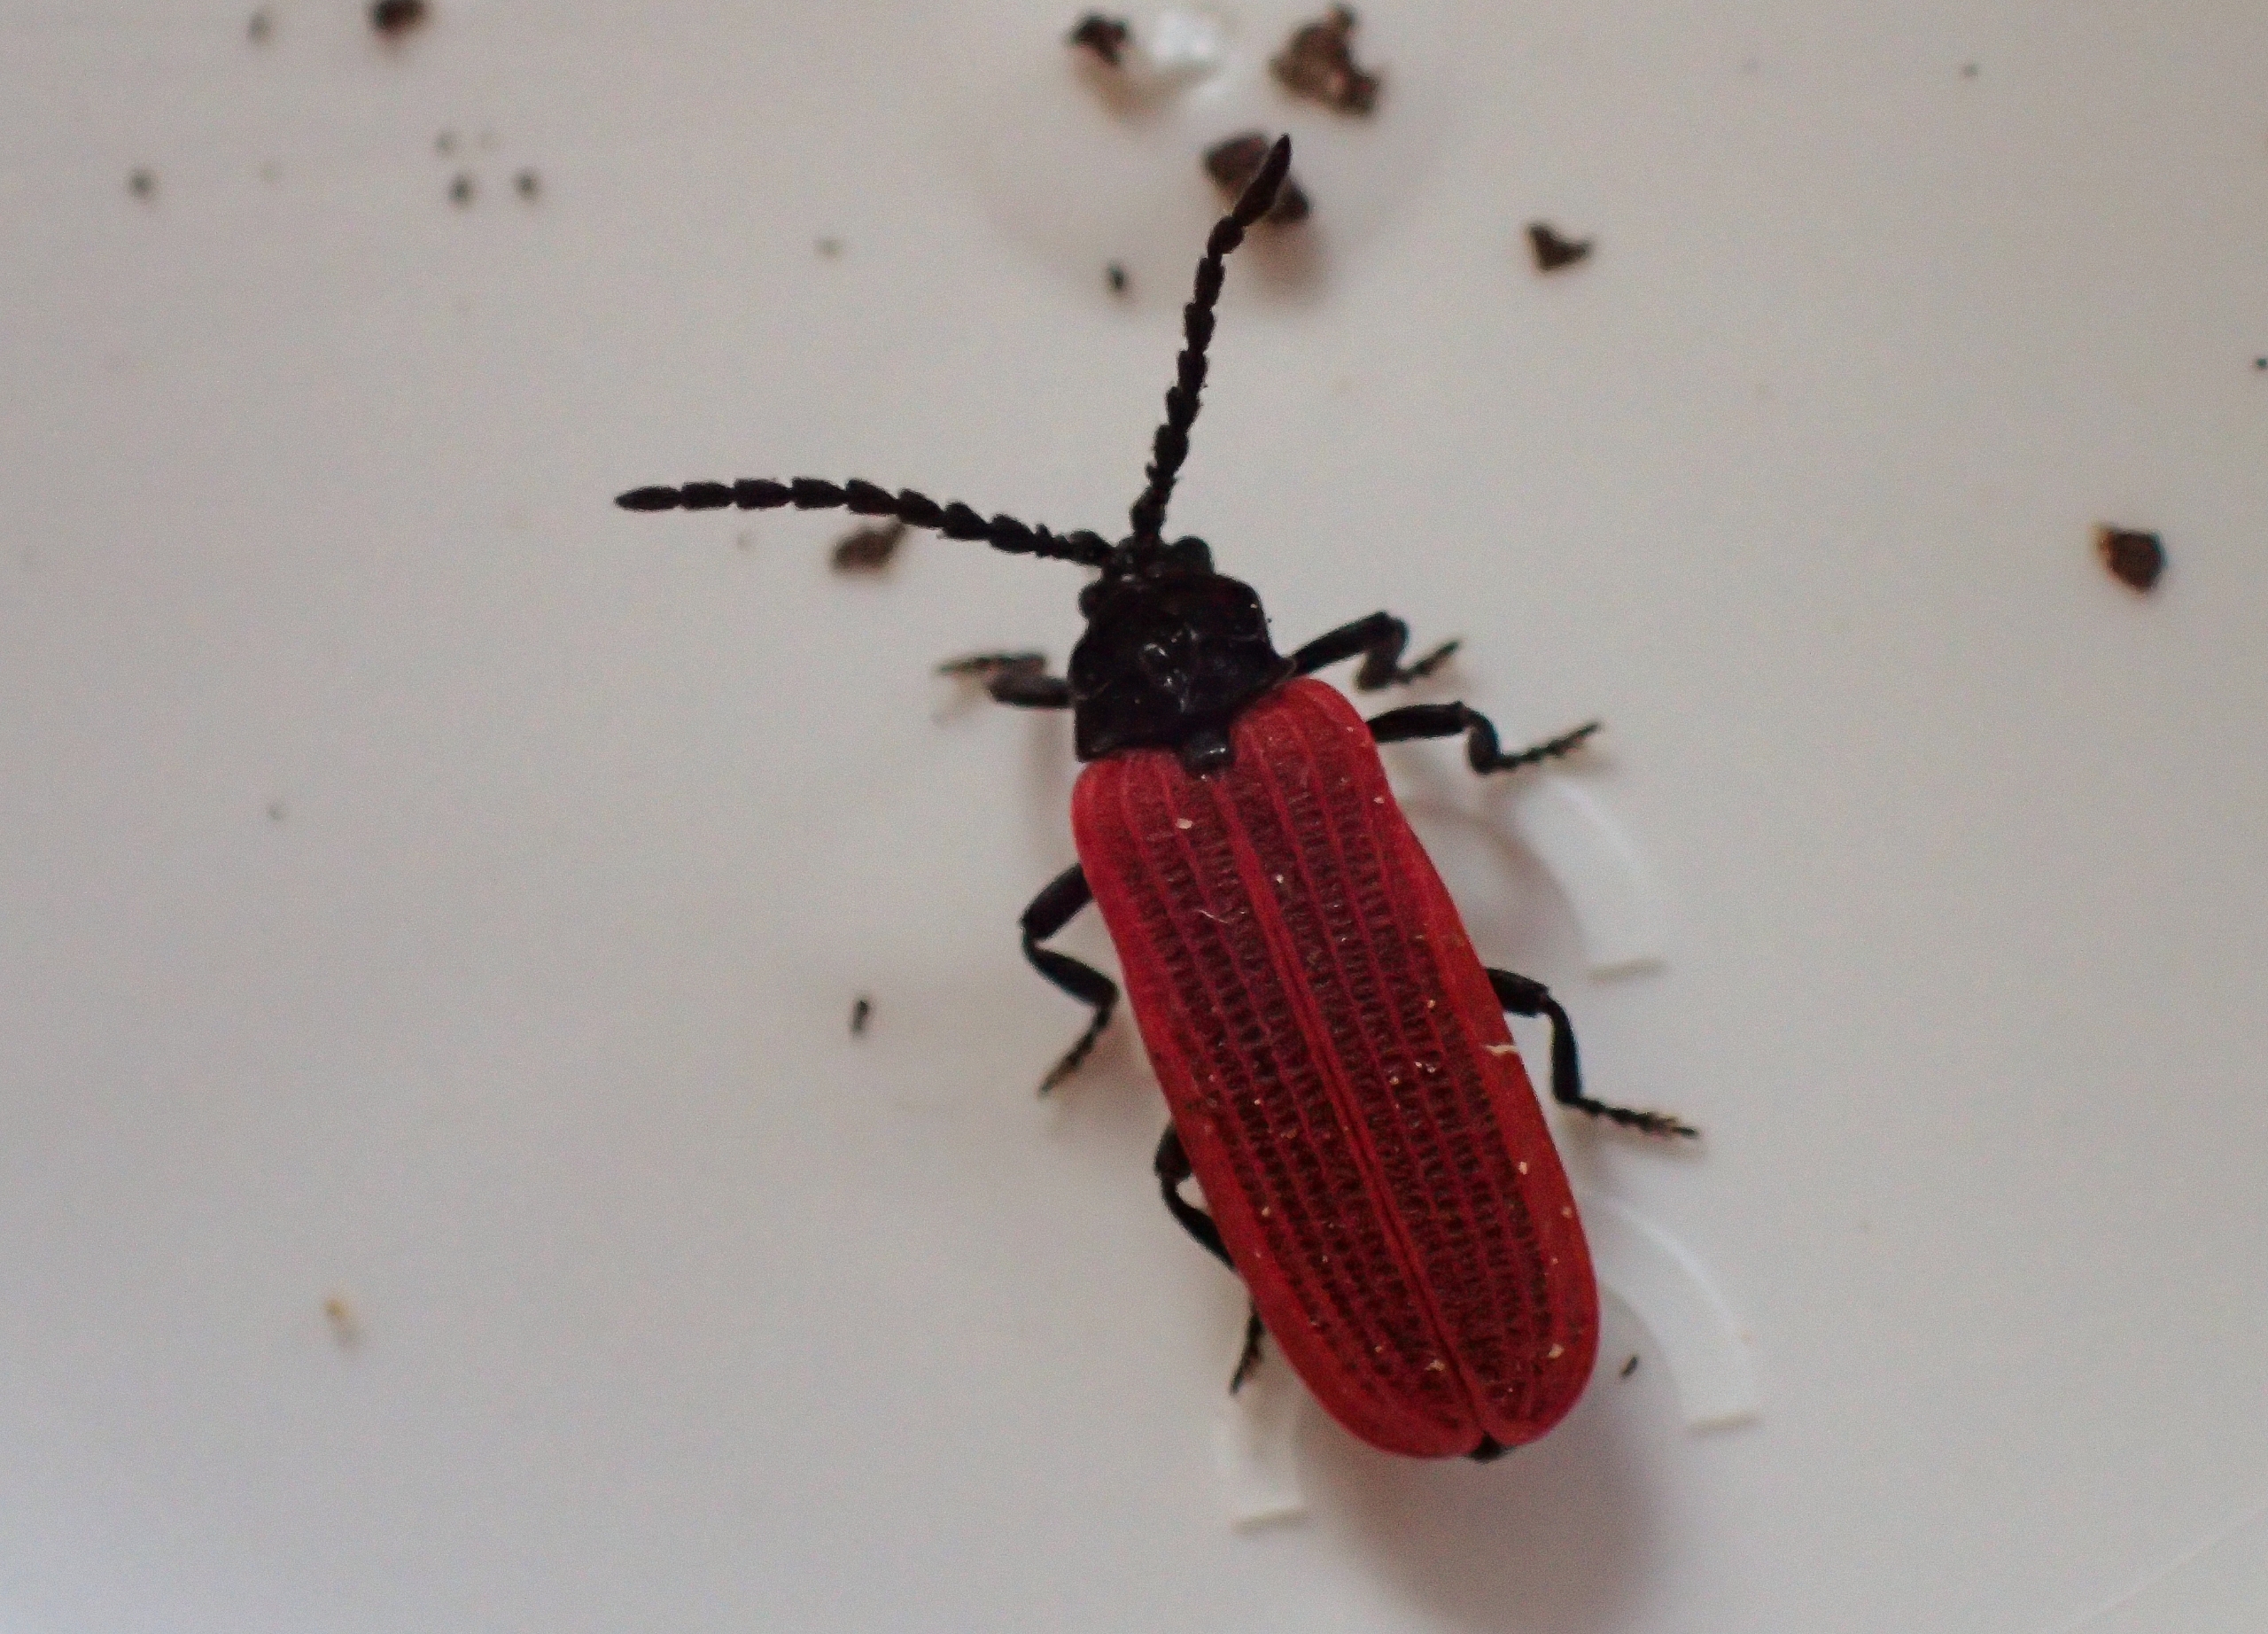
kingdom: Animalia
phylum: Arthropoda
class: Insecta
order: Coleoptera
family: Lycidae
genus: Pyropterus
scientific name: Pyropterus nigroruber
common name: Sortbrystet maskebille
